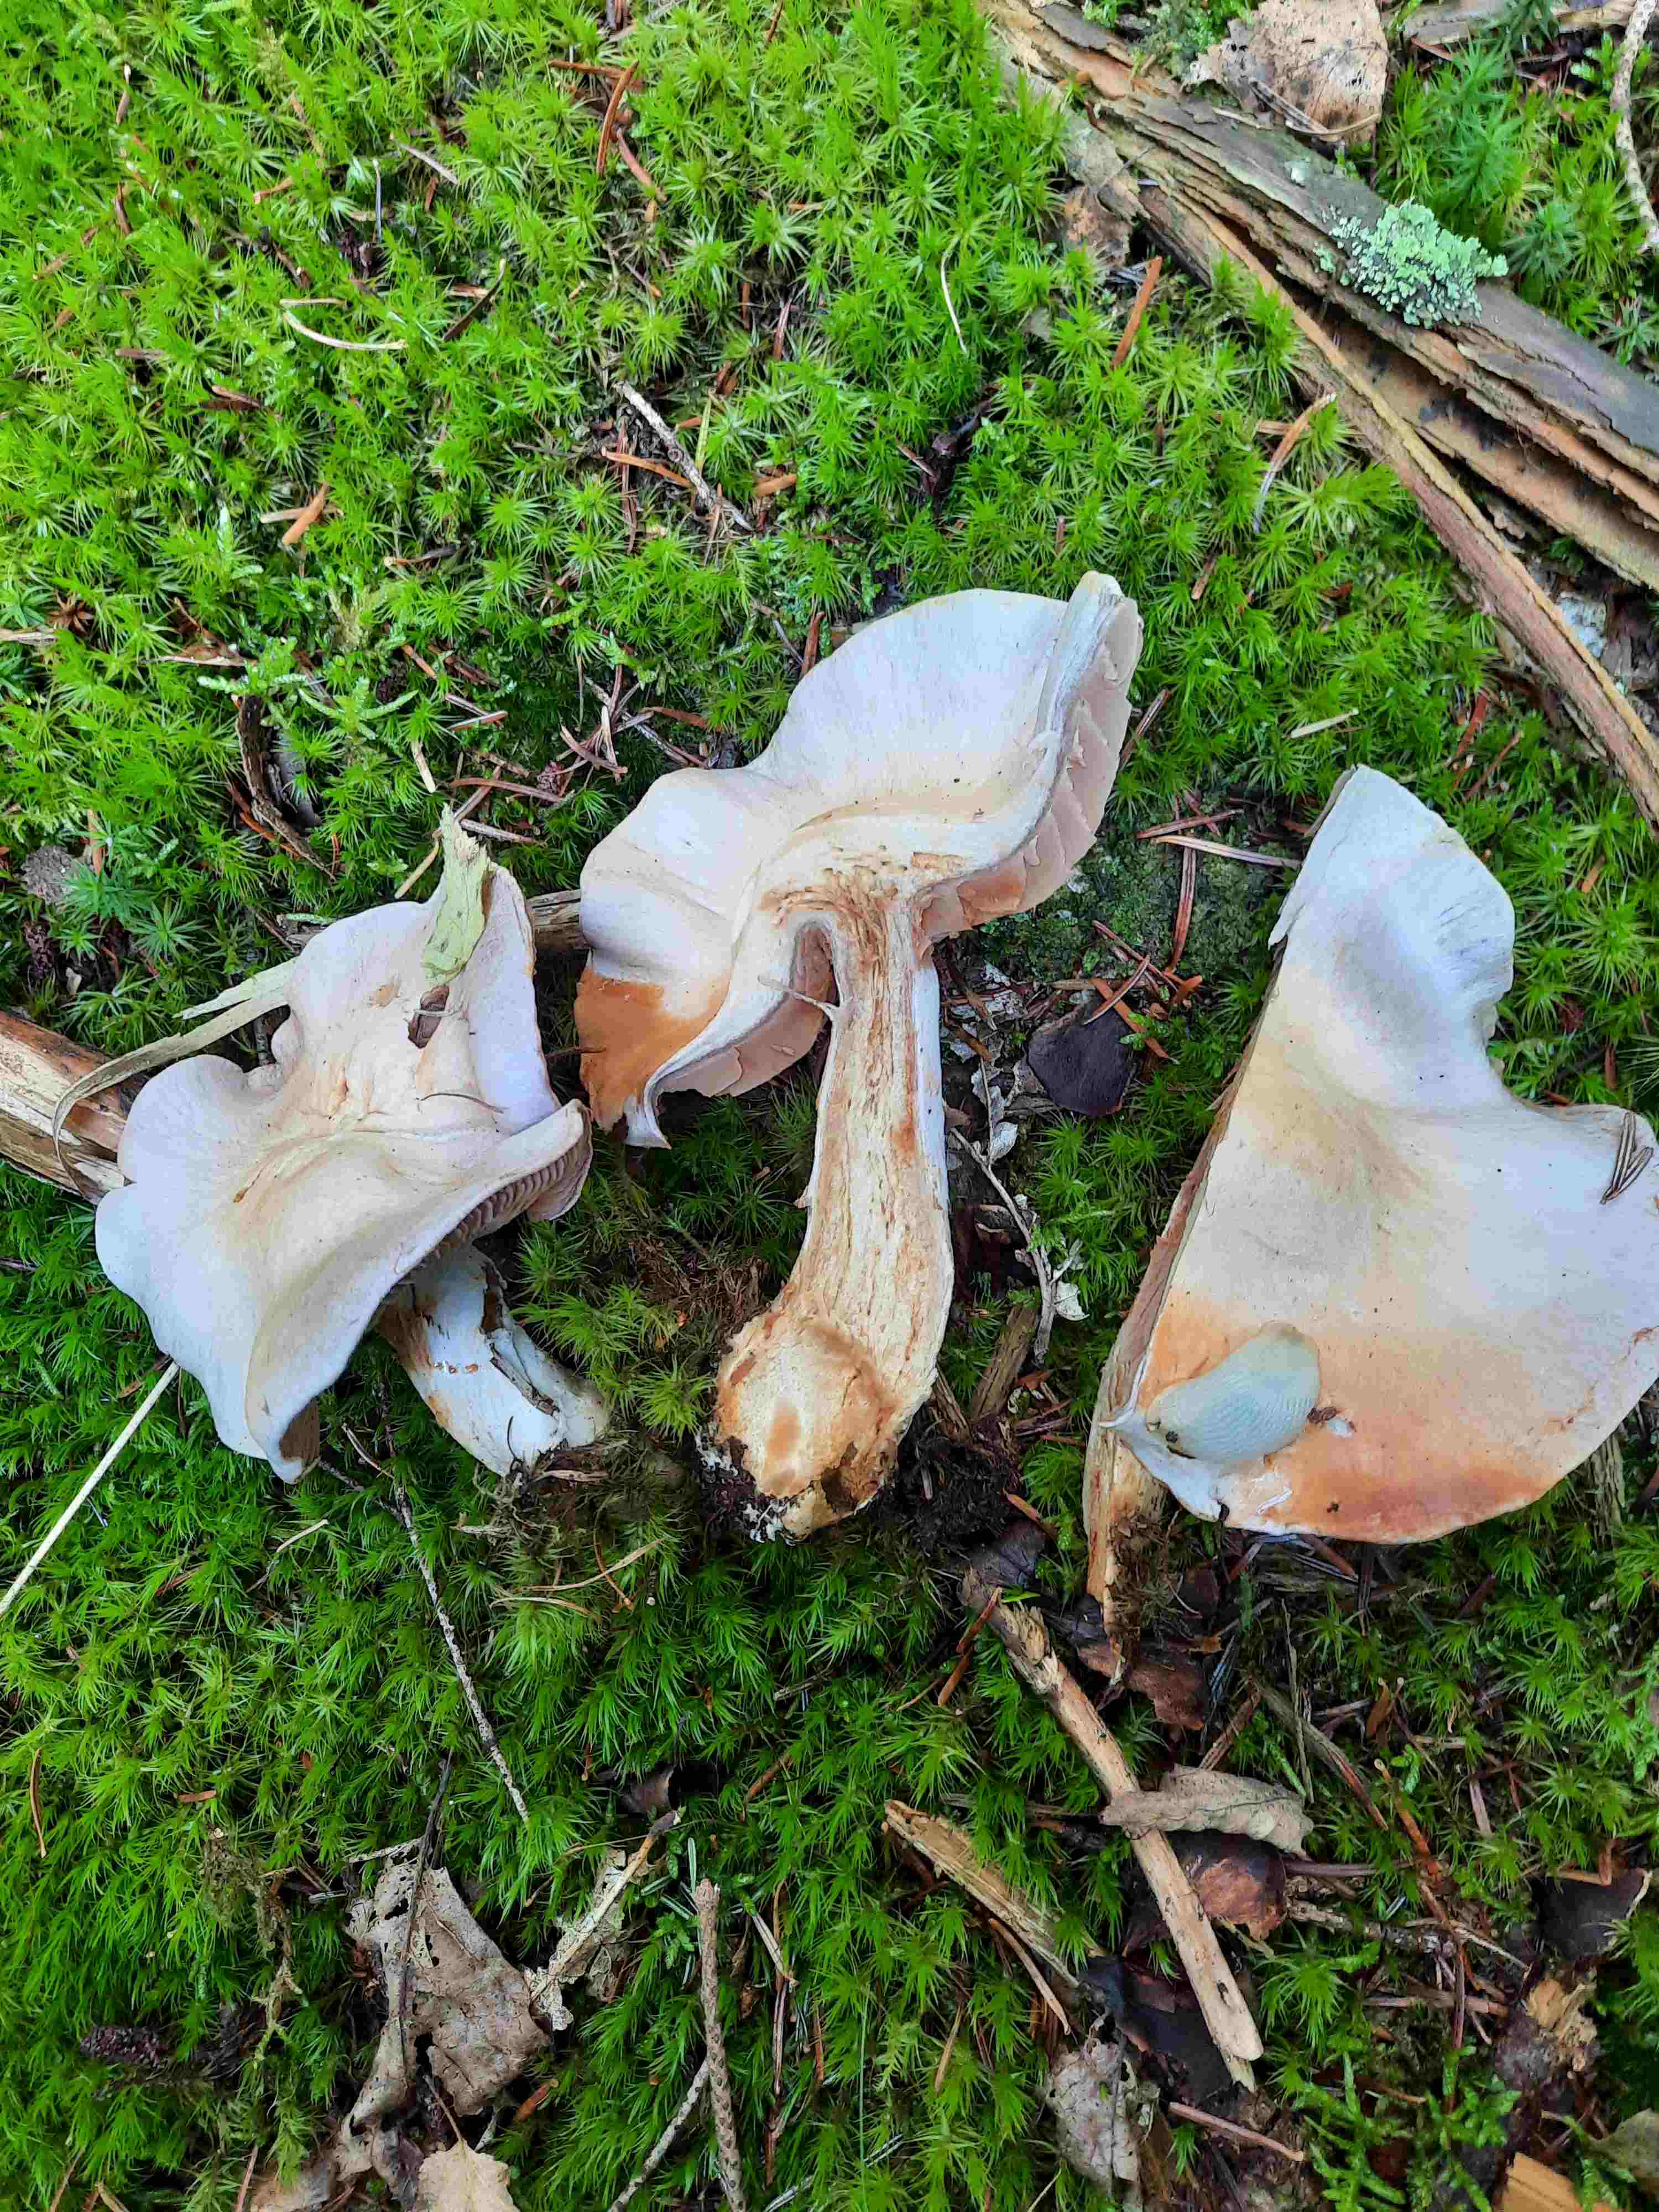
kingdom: Fungi
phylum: Basidiomycota
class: Agaricomycetes
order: Agaricales
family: Cortinariaceae
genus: Cortinarius
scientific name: Cortinarius camphoratus
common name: stinkende slørhat
